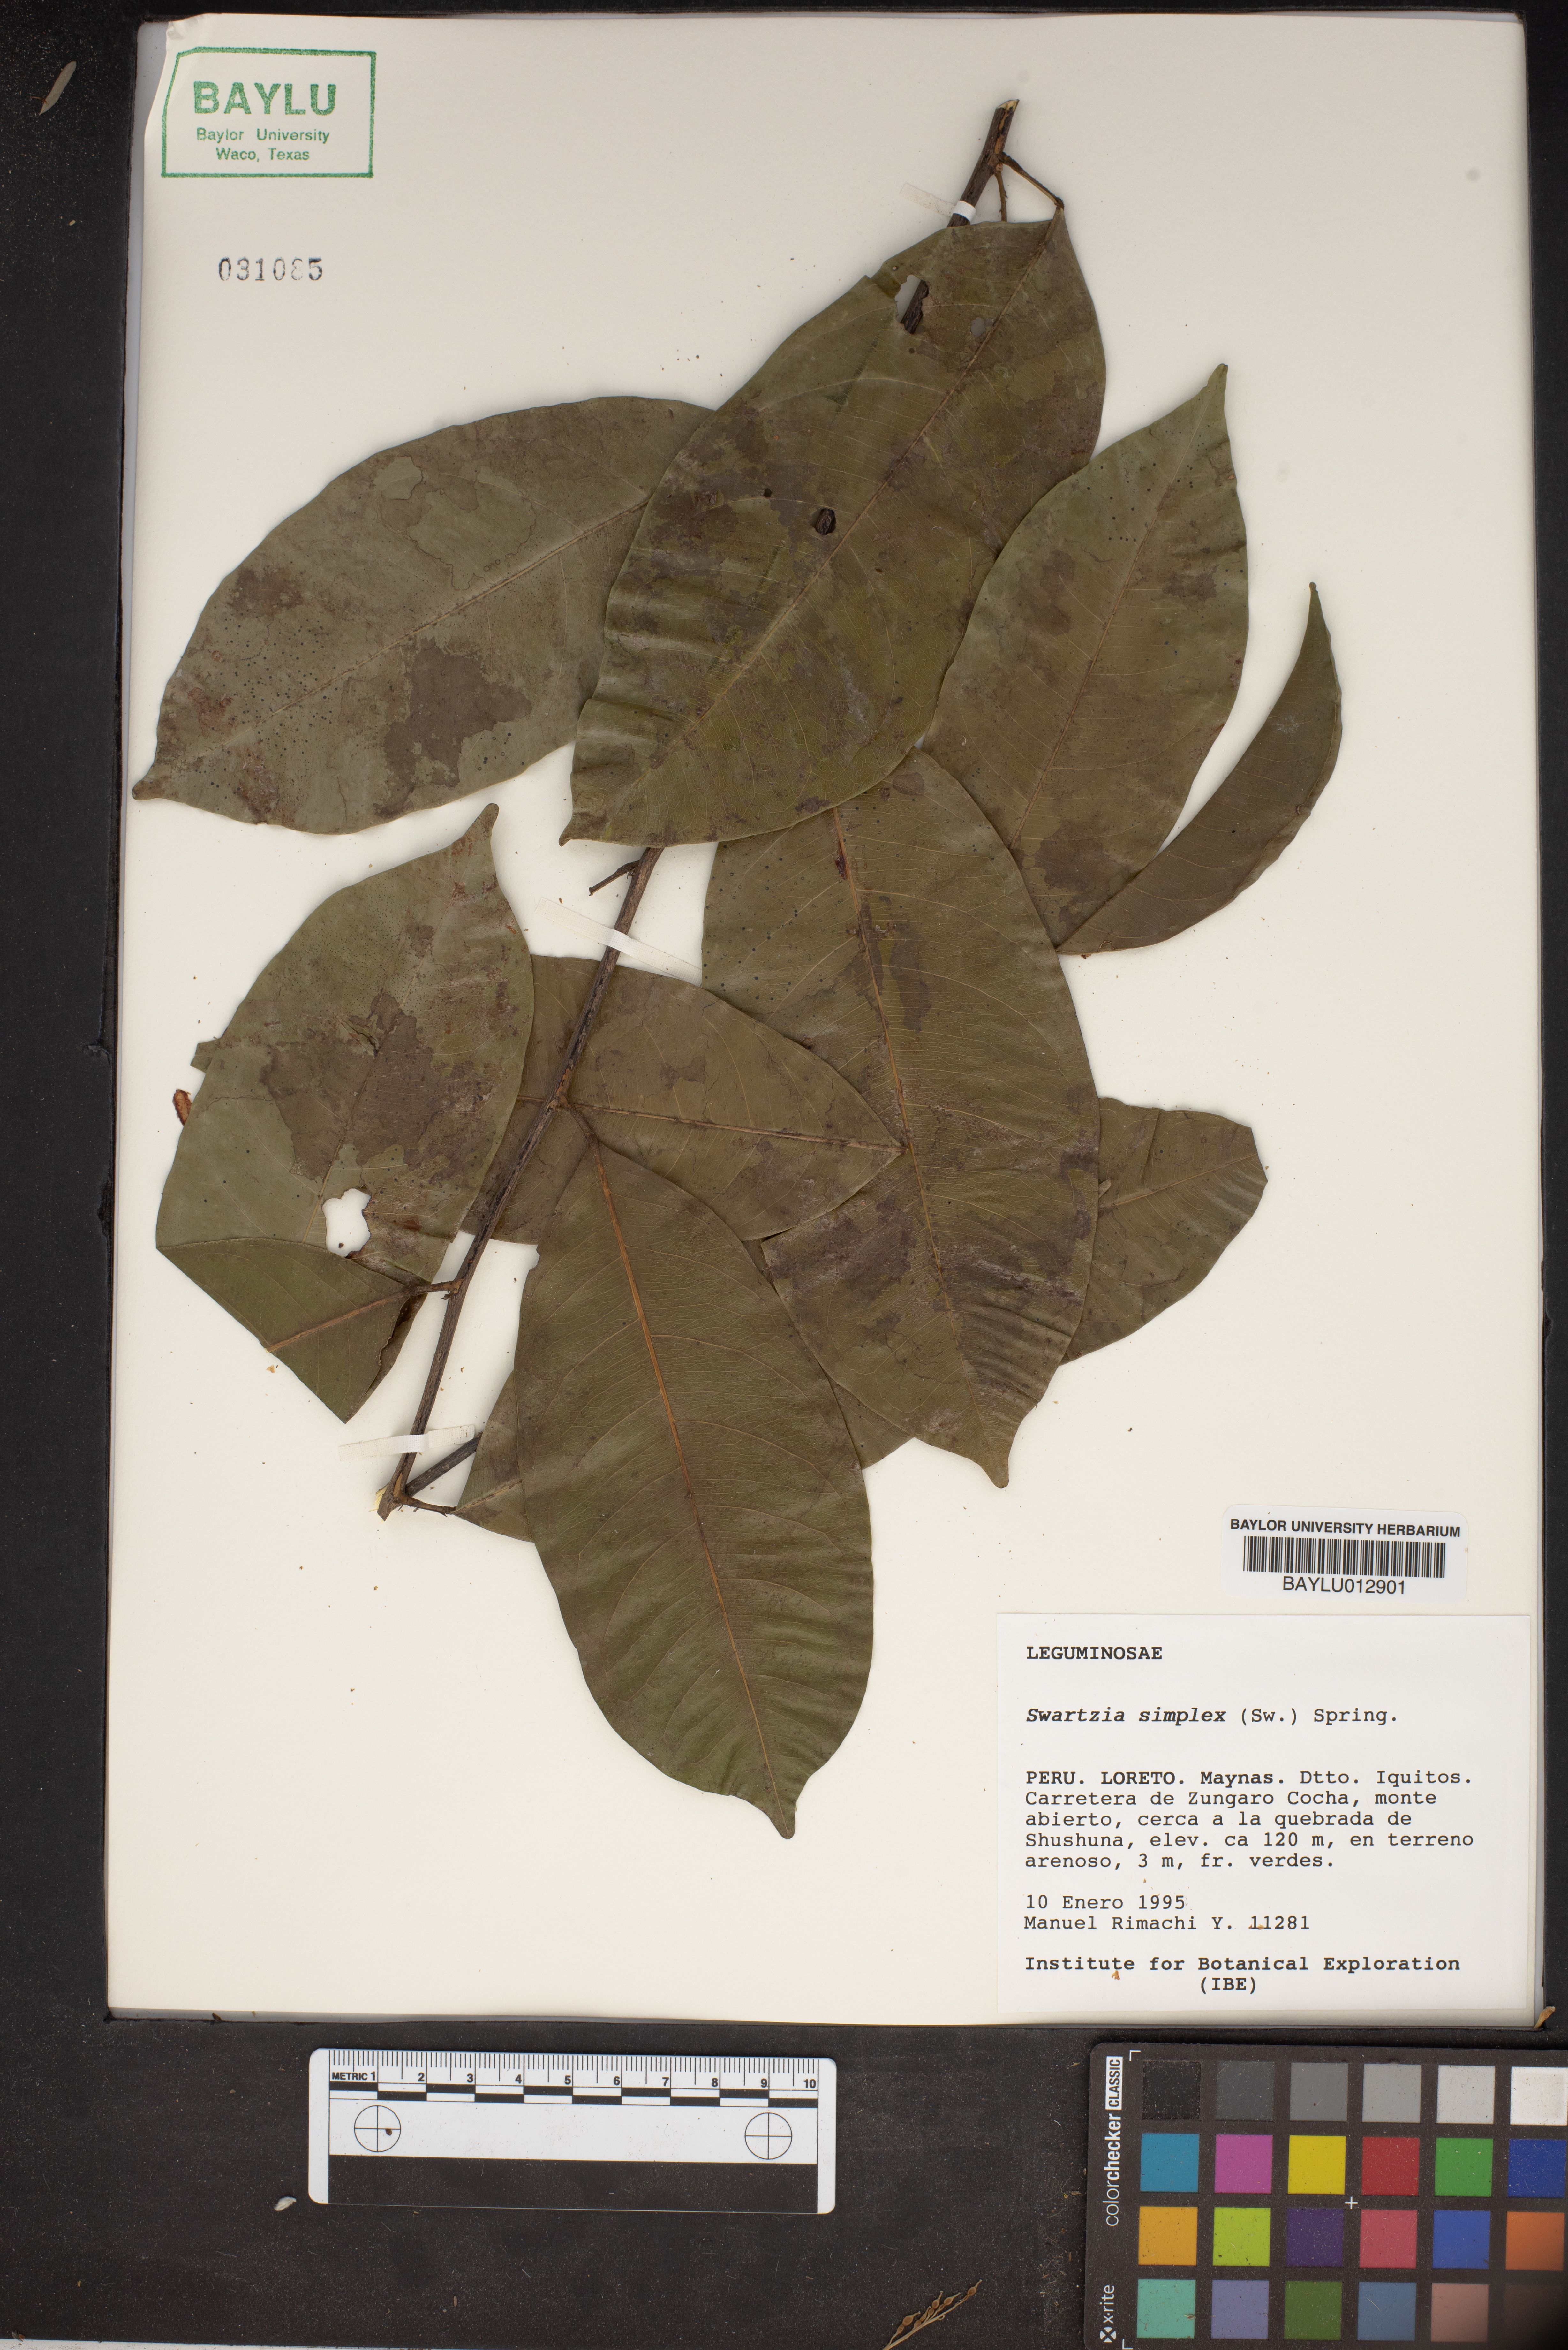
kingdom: Plantae
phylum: Tracheophyta
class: Magnoliopsida
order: Fabales
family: Fabaceae
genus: Swartzia
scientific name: Swartzia simplex
